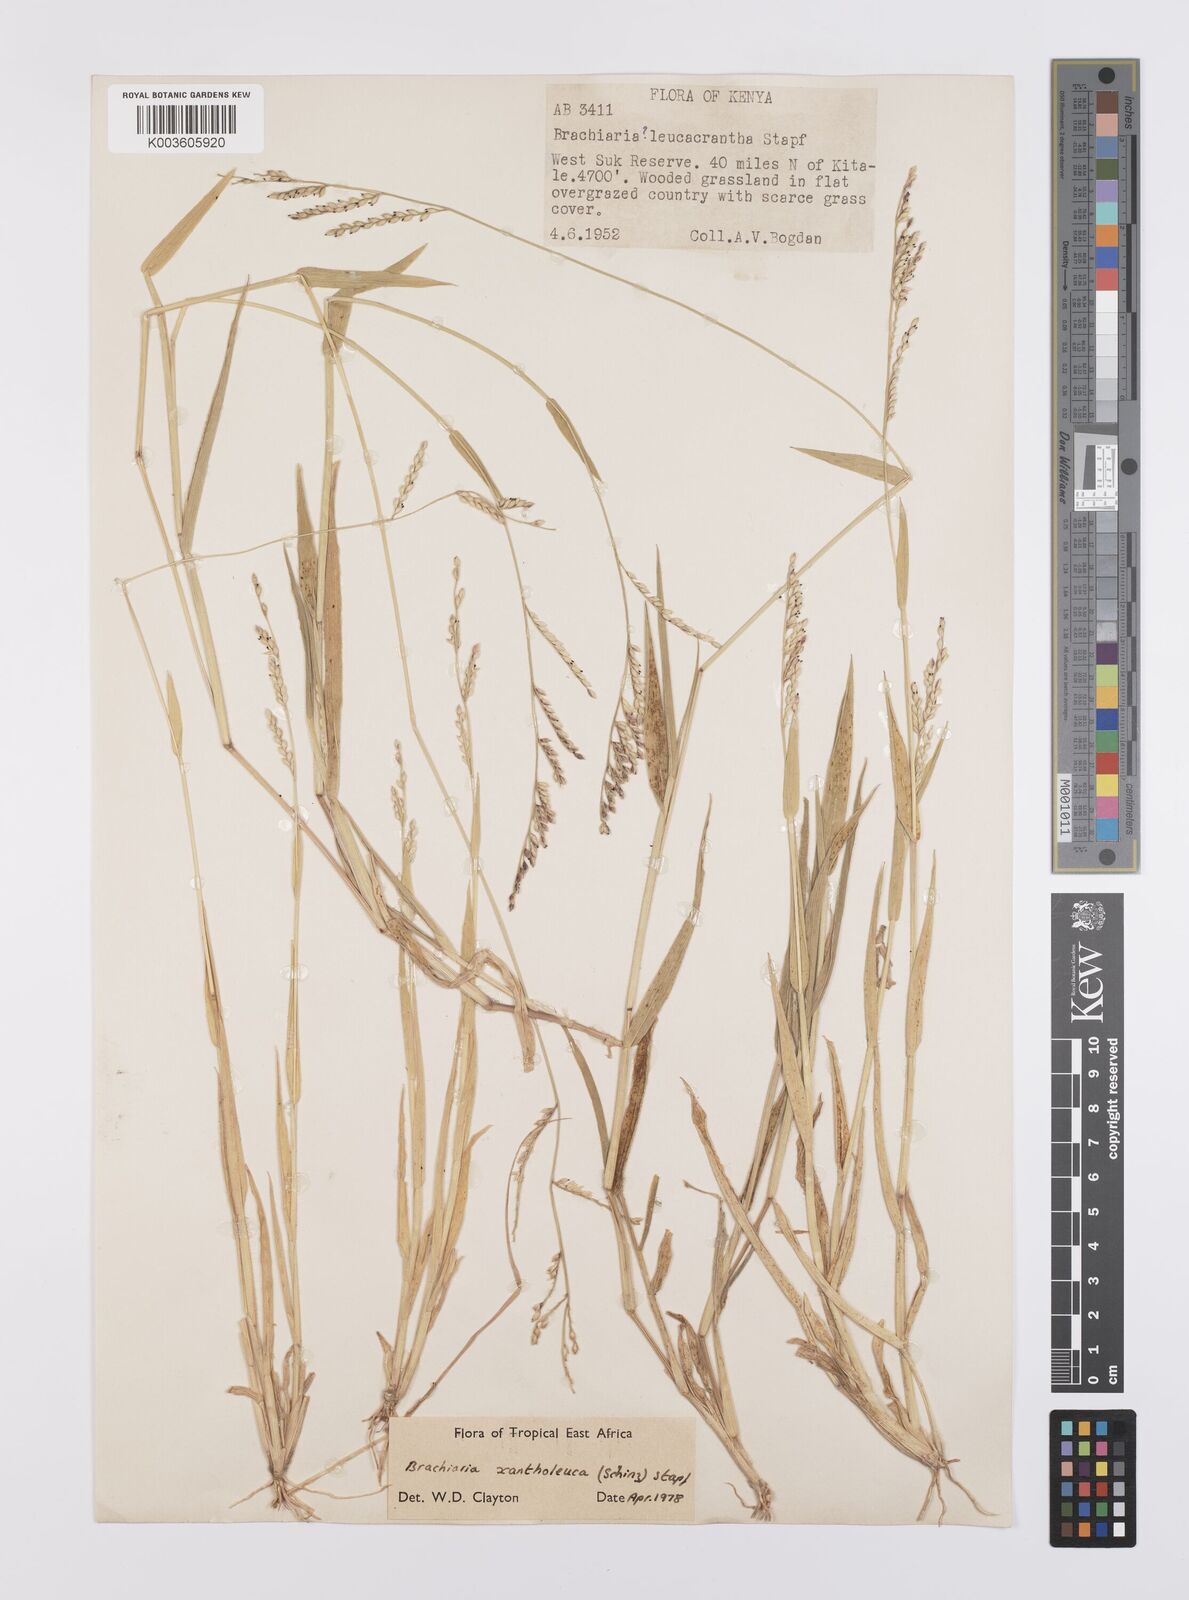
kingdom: Plantae
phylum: Tracheophyta
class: Liliopsida
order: Poales
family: Poaceae
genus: Urochloa
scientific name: Urochloa xantholeuca
